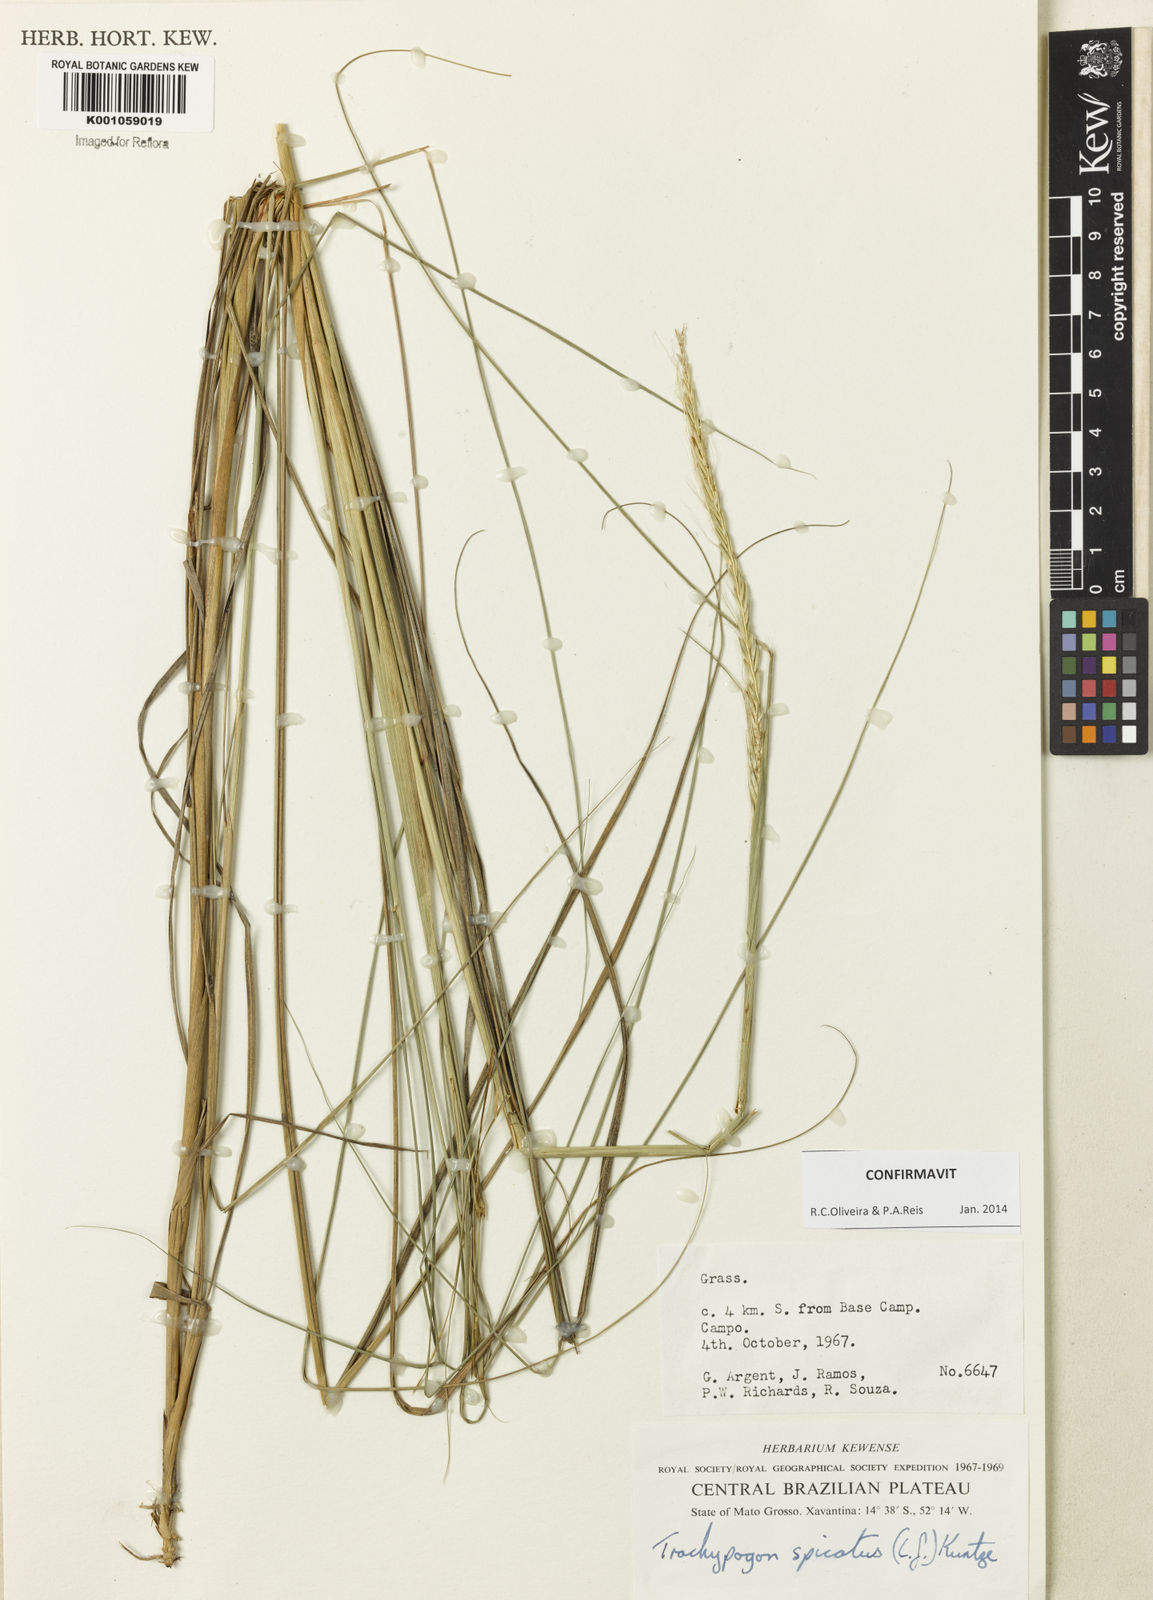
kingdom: Plantae
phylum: Tracheophyta
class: Liliopsida
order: Poales
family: Poaceae
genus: Trachypogon
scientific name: Trachypogon spicatus
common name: Crinkle-awn
